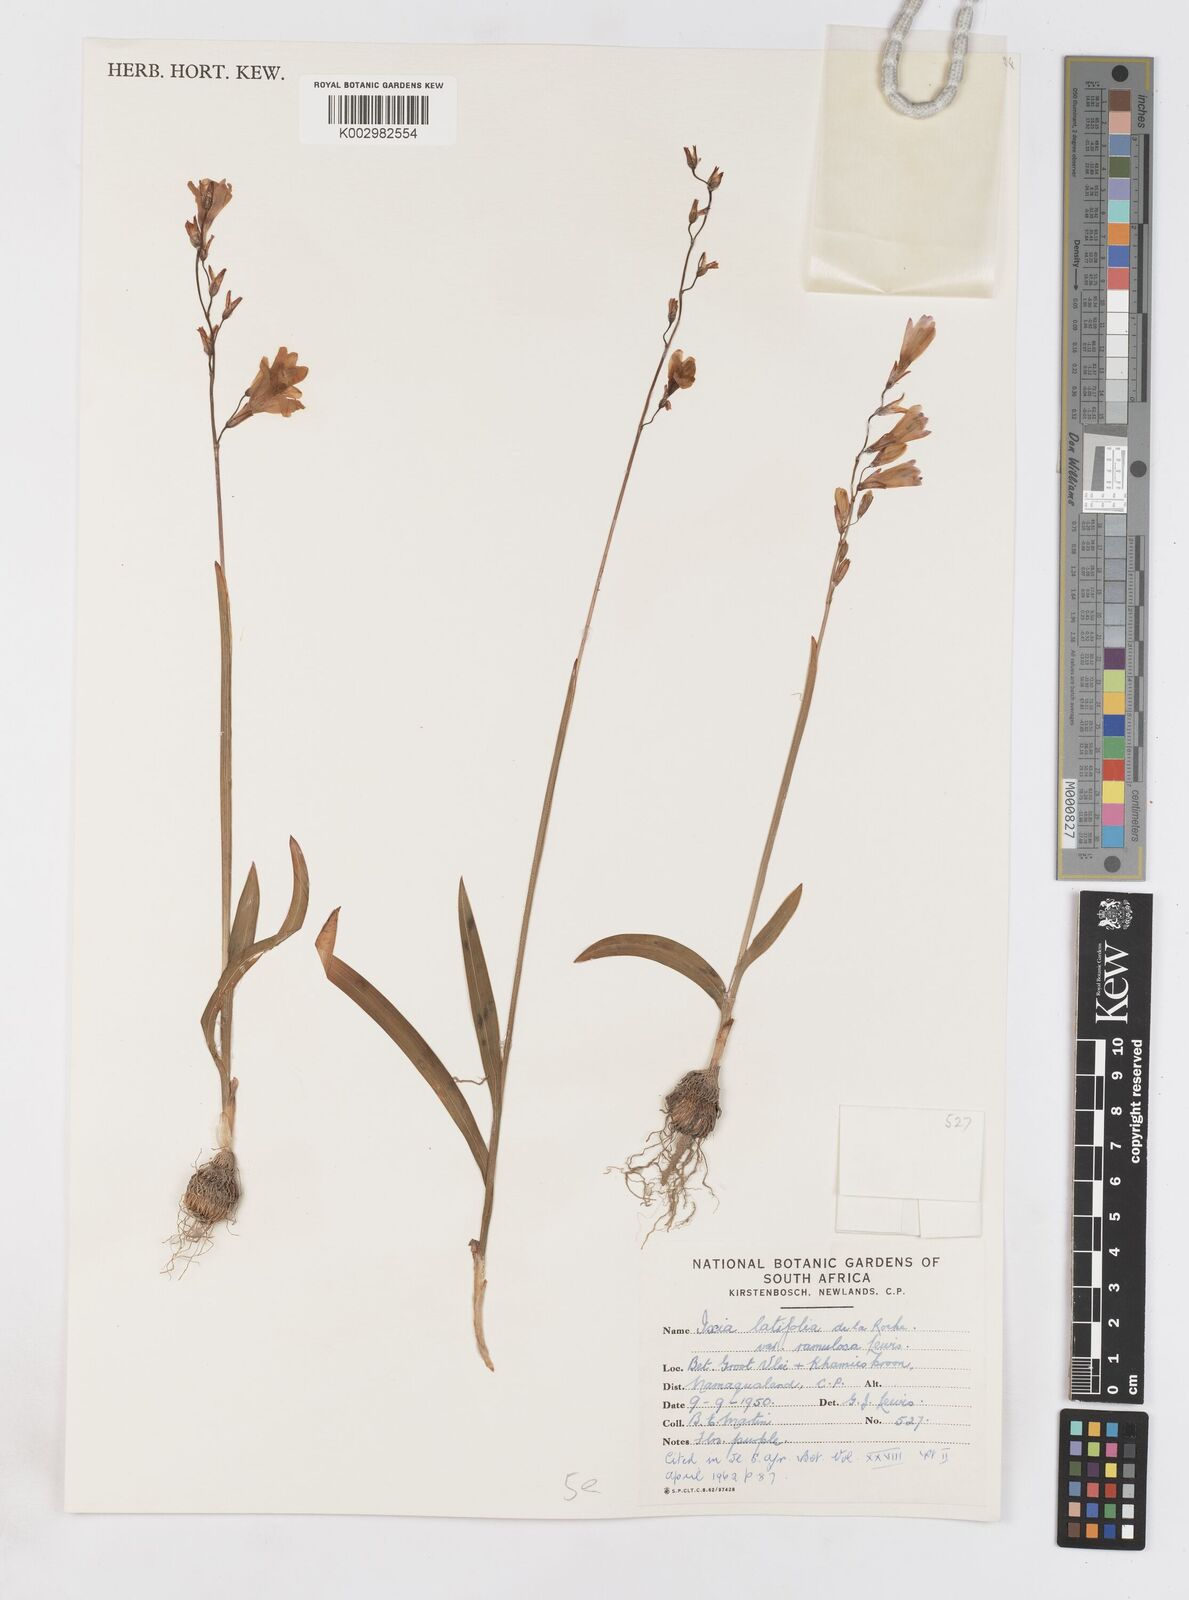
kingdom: Plantae
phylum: Tracheophyta
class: Liliopsida
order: Asparagales
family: Iridaceae
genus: Ixia
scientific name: Ixia ramulosa
